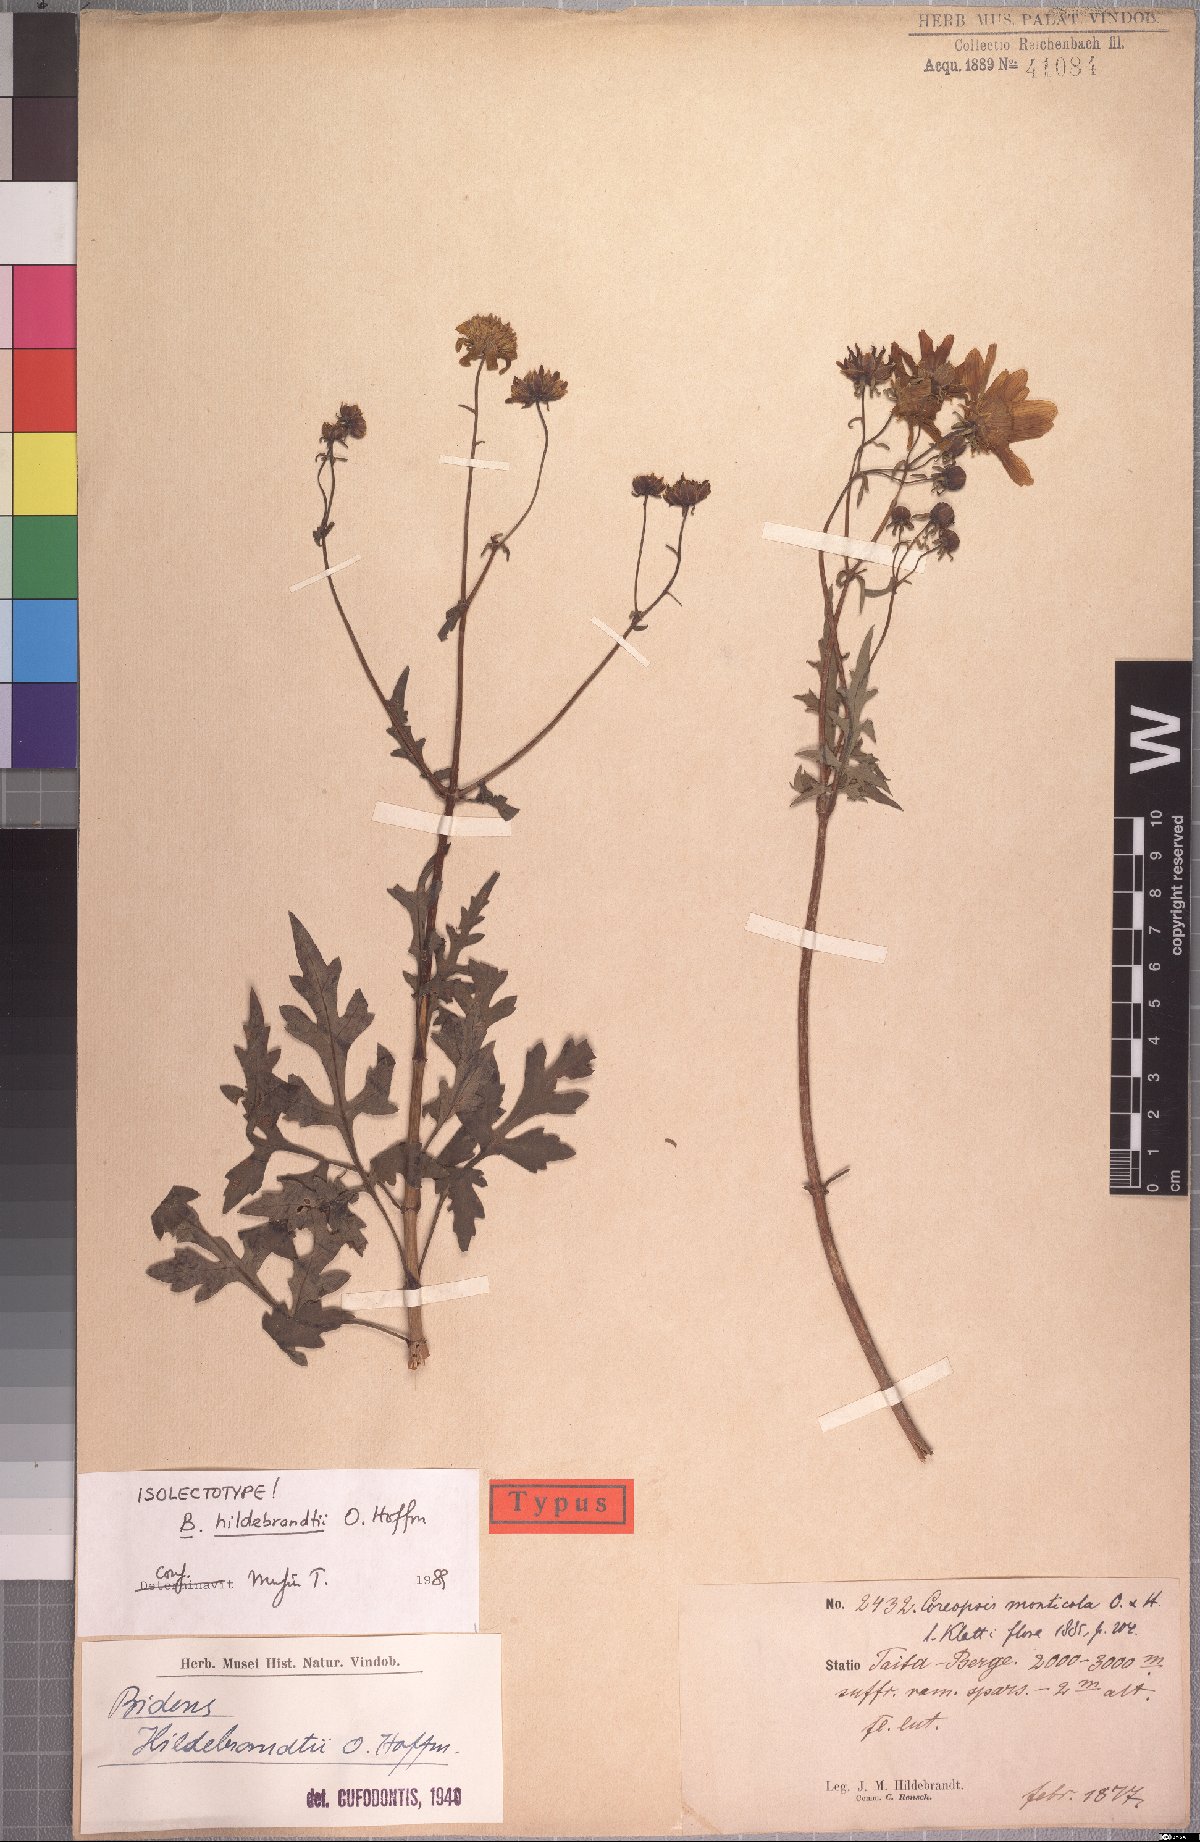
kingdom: Plantae
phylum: Tracheophyta
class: Magnoliopsida
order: Asterales
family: Asteraceae
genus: Bidens
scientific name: Bidens hildebrandtii
